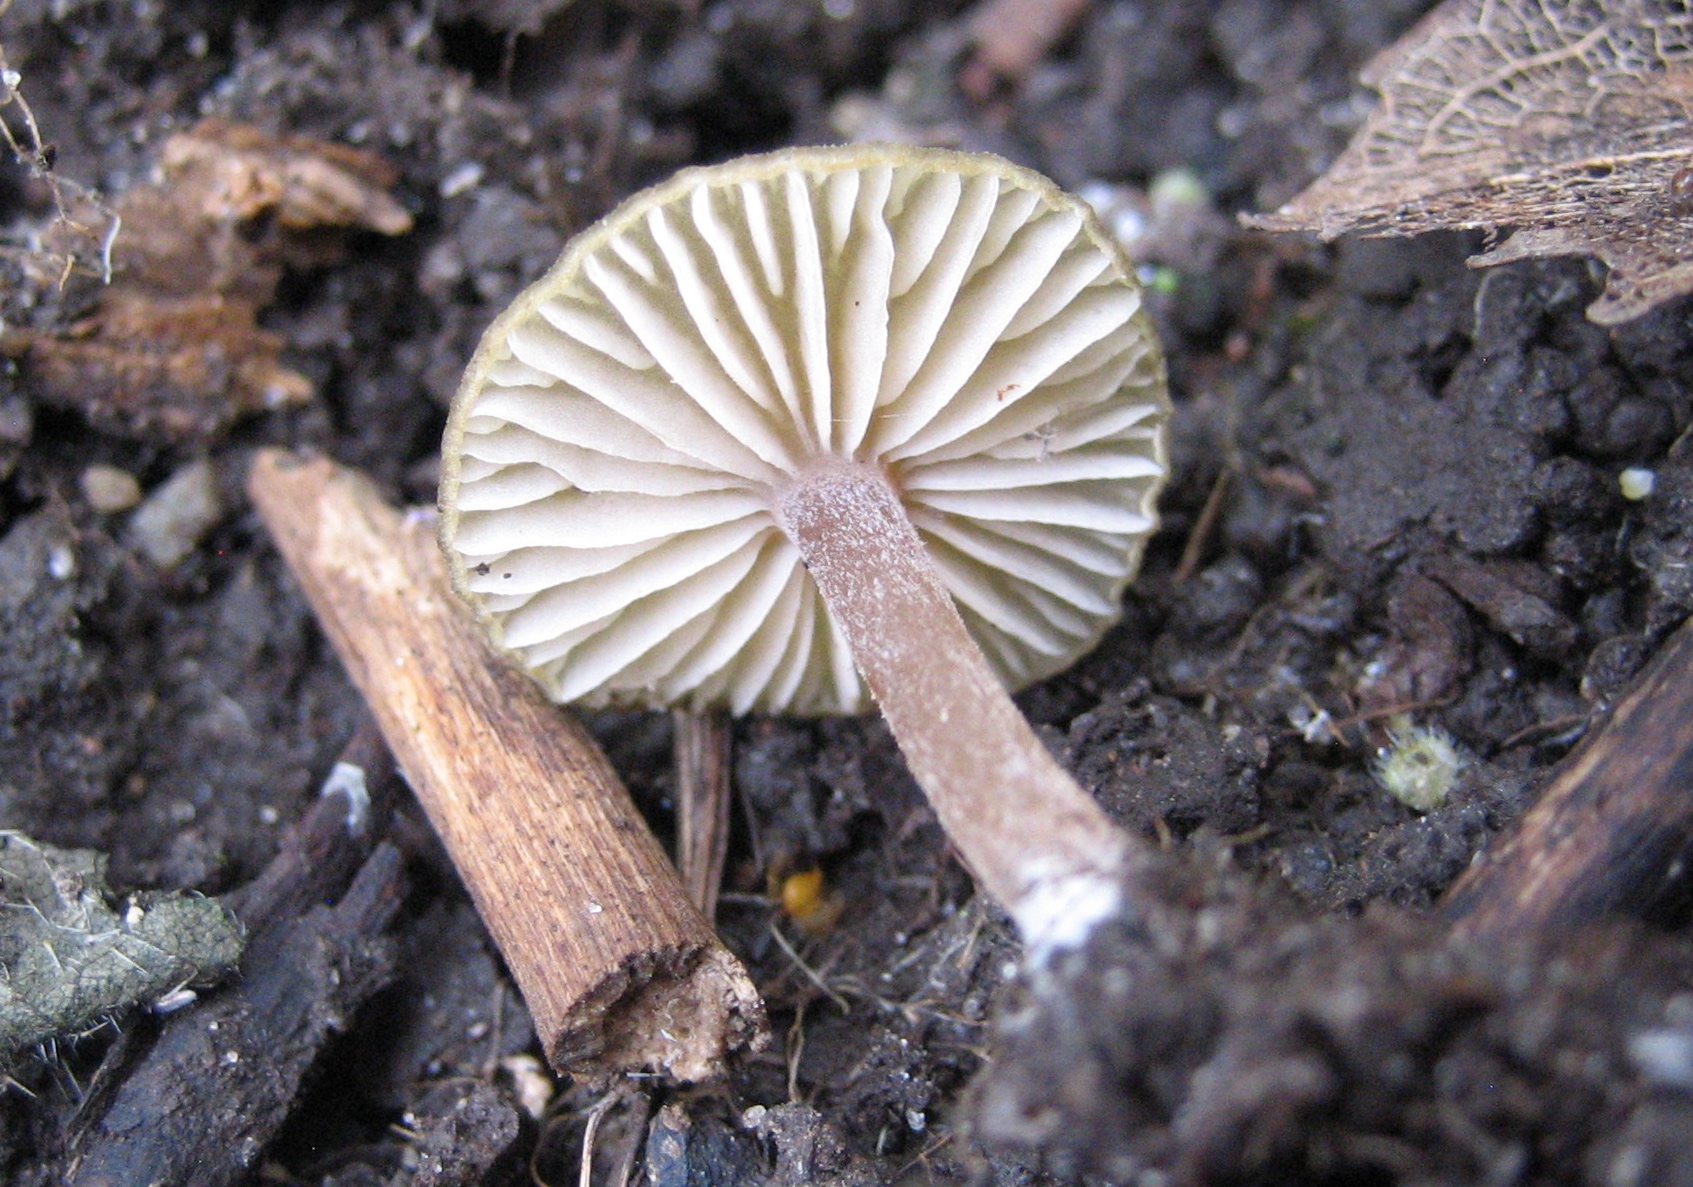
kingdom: Fungi
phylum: Basidiomycota
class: Agaricomycetes
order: Agaricales
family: Entolomataceae
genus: Entoloma
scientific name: Entoloma pleopodium
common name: duftende rødblad
